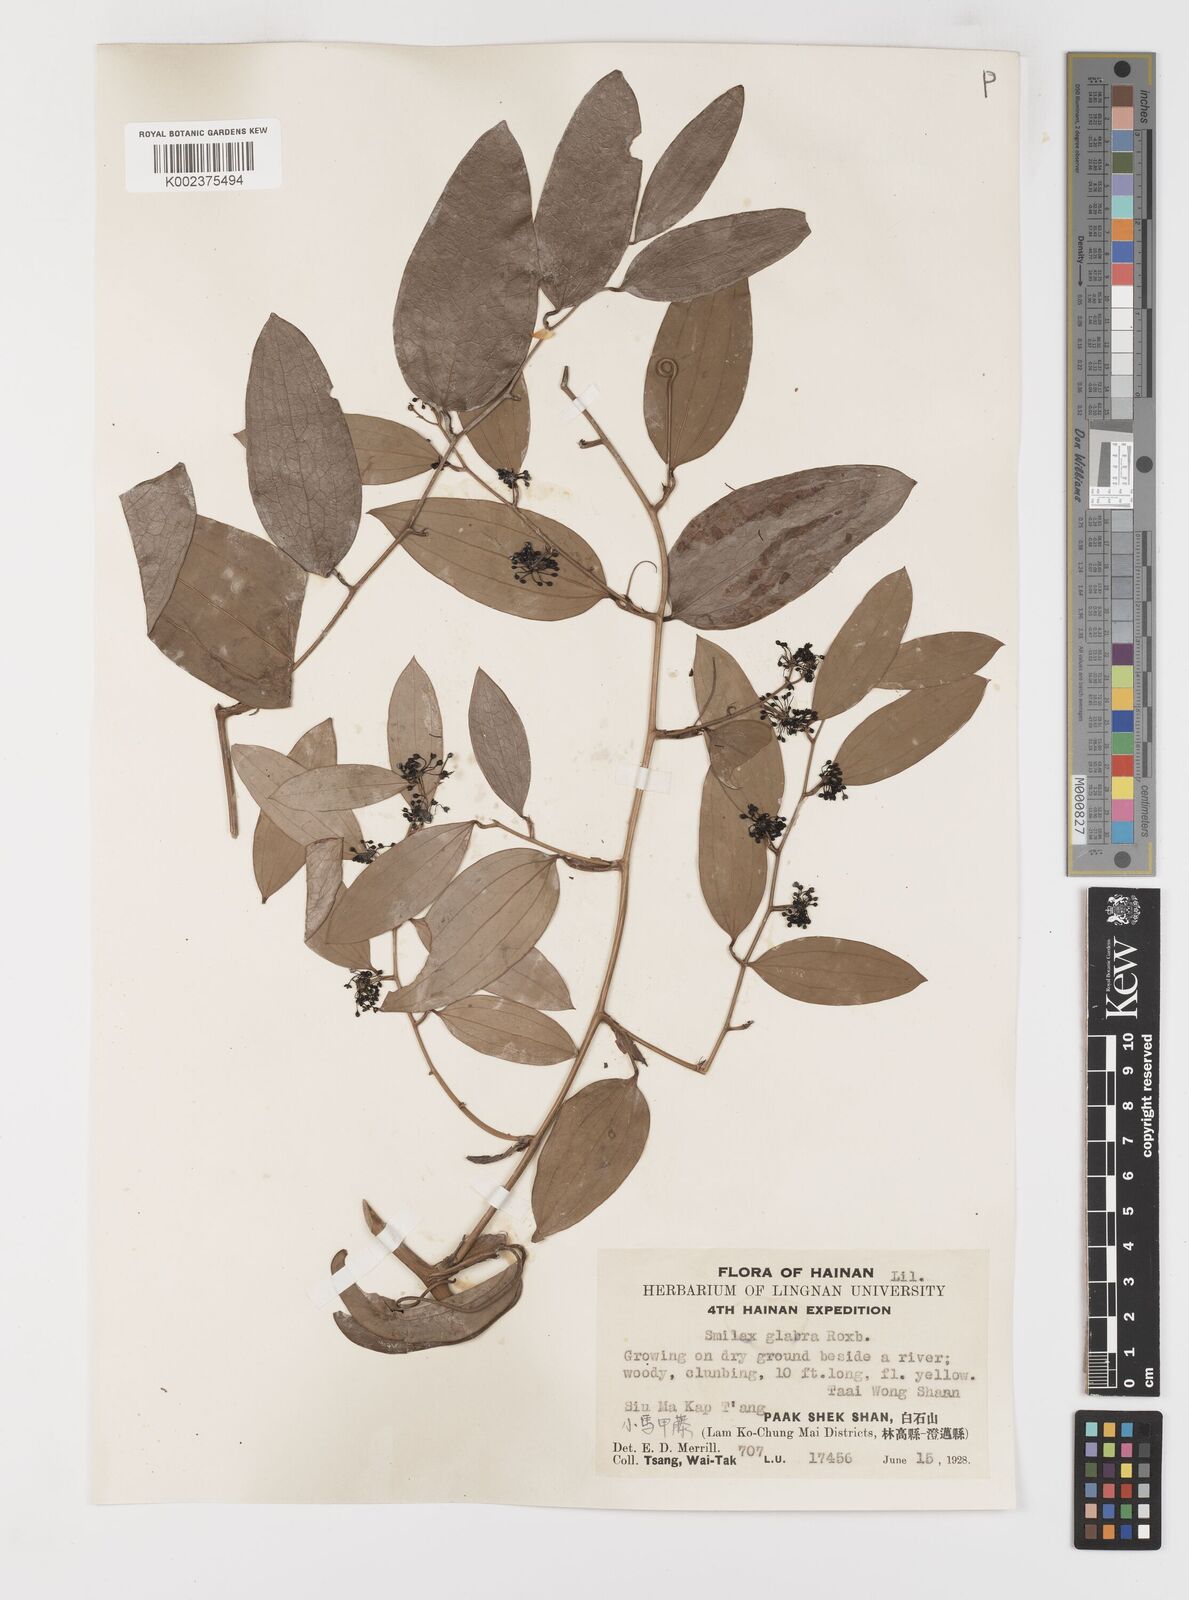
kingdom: Plantae
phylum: Tracheophyta
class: Liliopsida
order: Liliales
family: Smilacaceae
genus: Smilax
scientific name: Smilax glabra
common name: Chinese smilax
